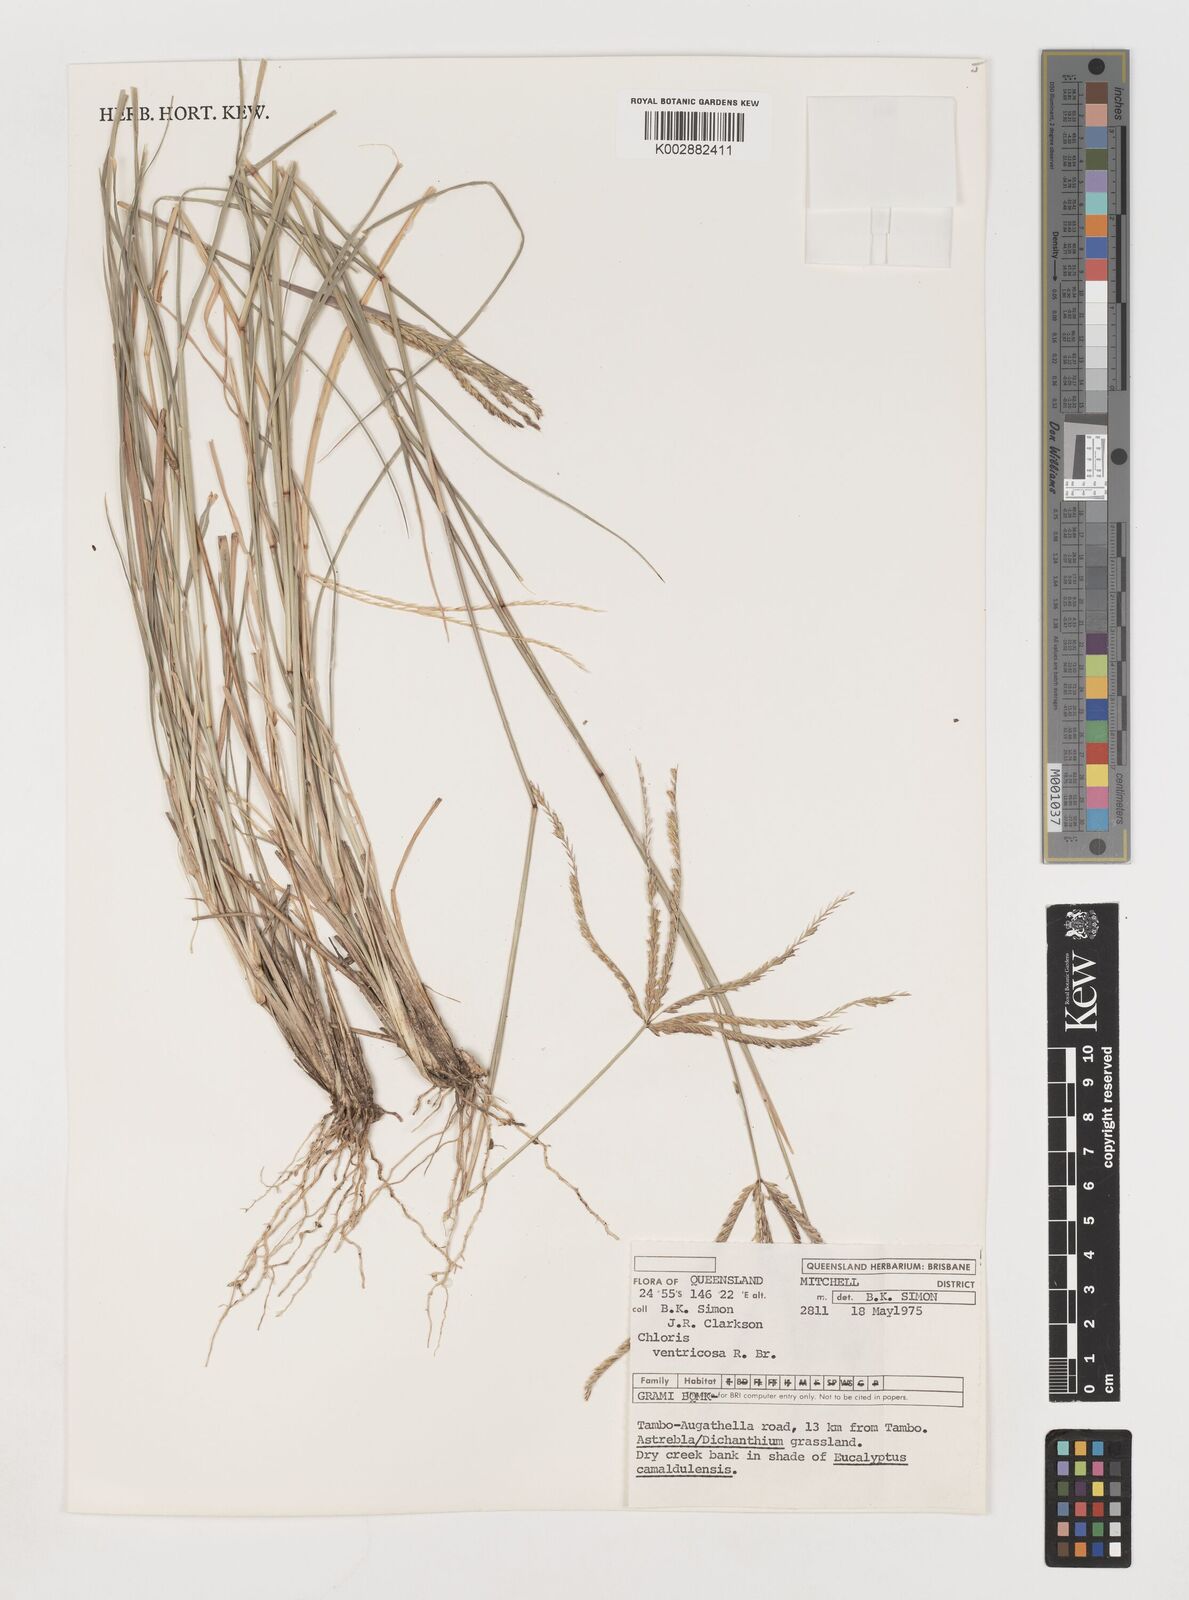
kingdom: Plantae
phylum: Tracheophyta
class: Liliopsida
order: Poales
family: Poaceae
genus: Chloris
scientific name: Chloris ventricosa
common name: Australian windmill grass
